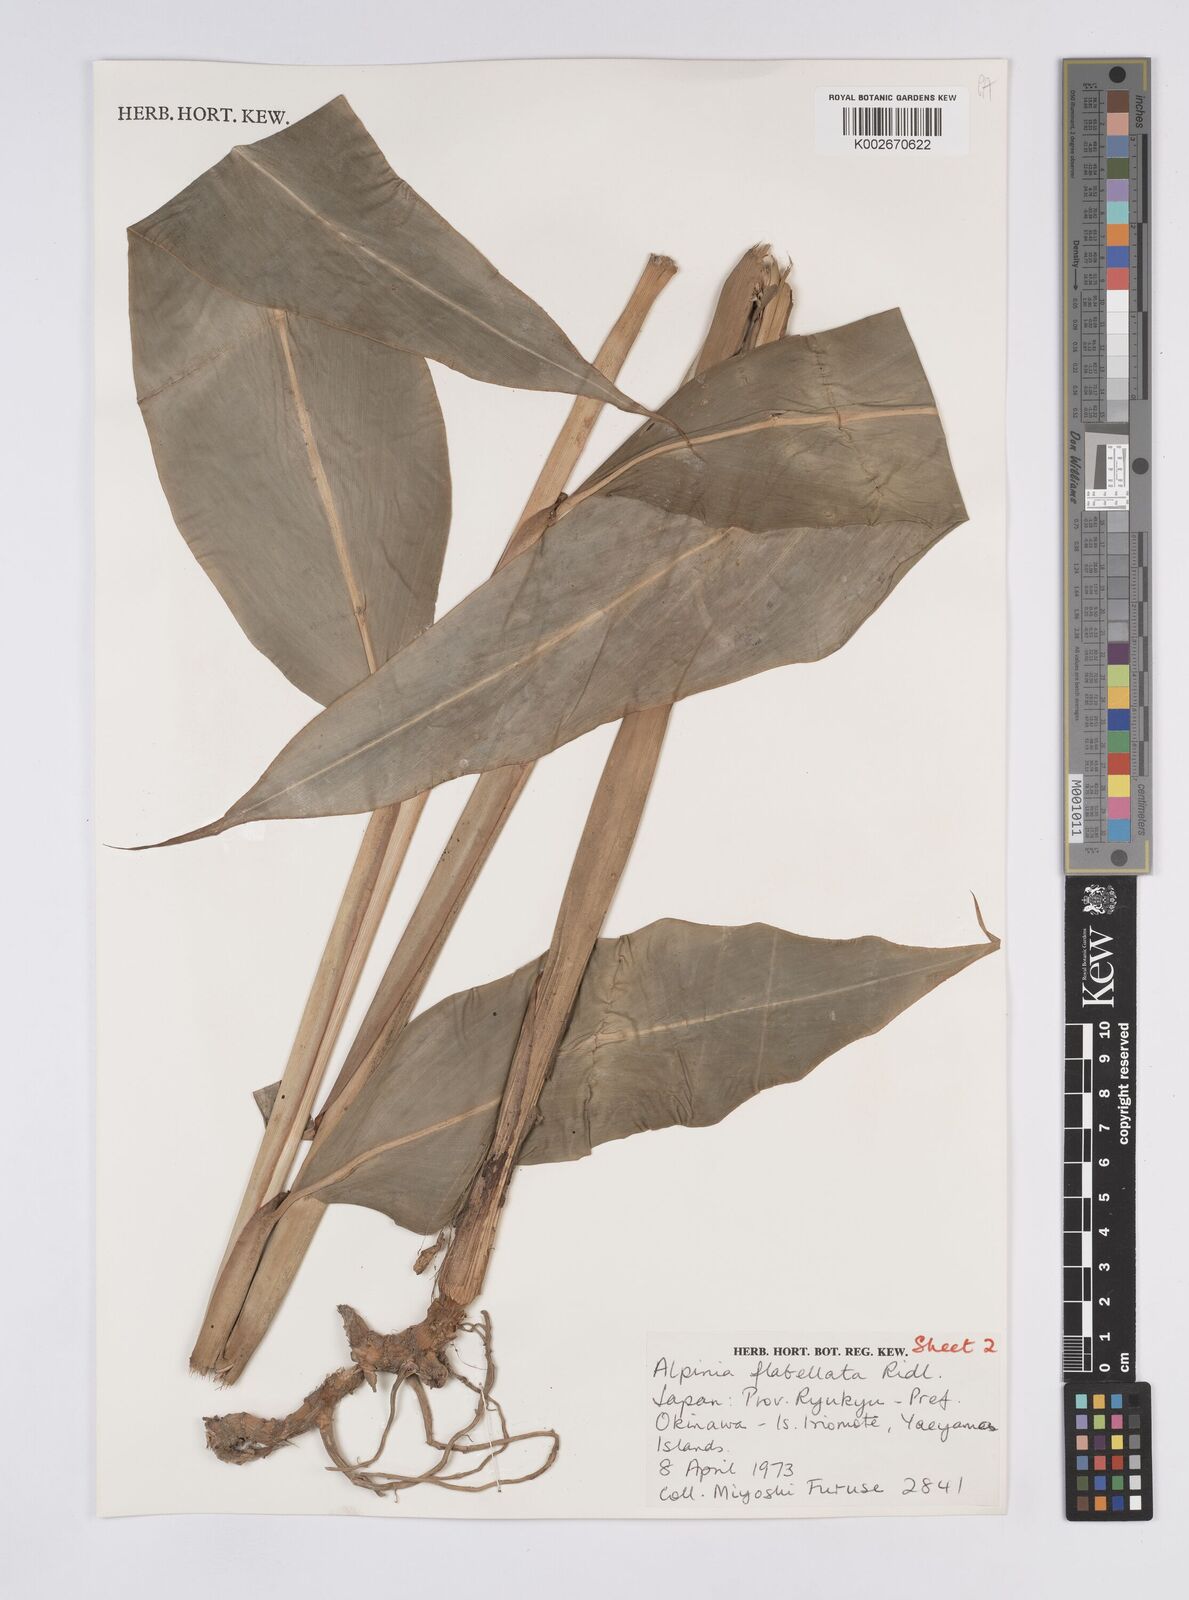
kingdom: Plantae
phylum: Tracheophyta
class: Liliopsida
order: Zingiberales
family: Zingiberaceae
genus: Alpinia
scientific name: Alpinia flabellata
